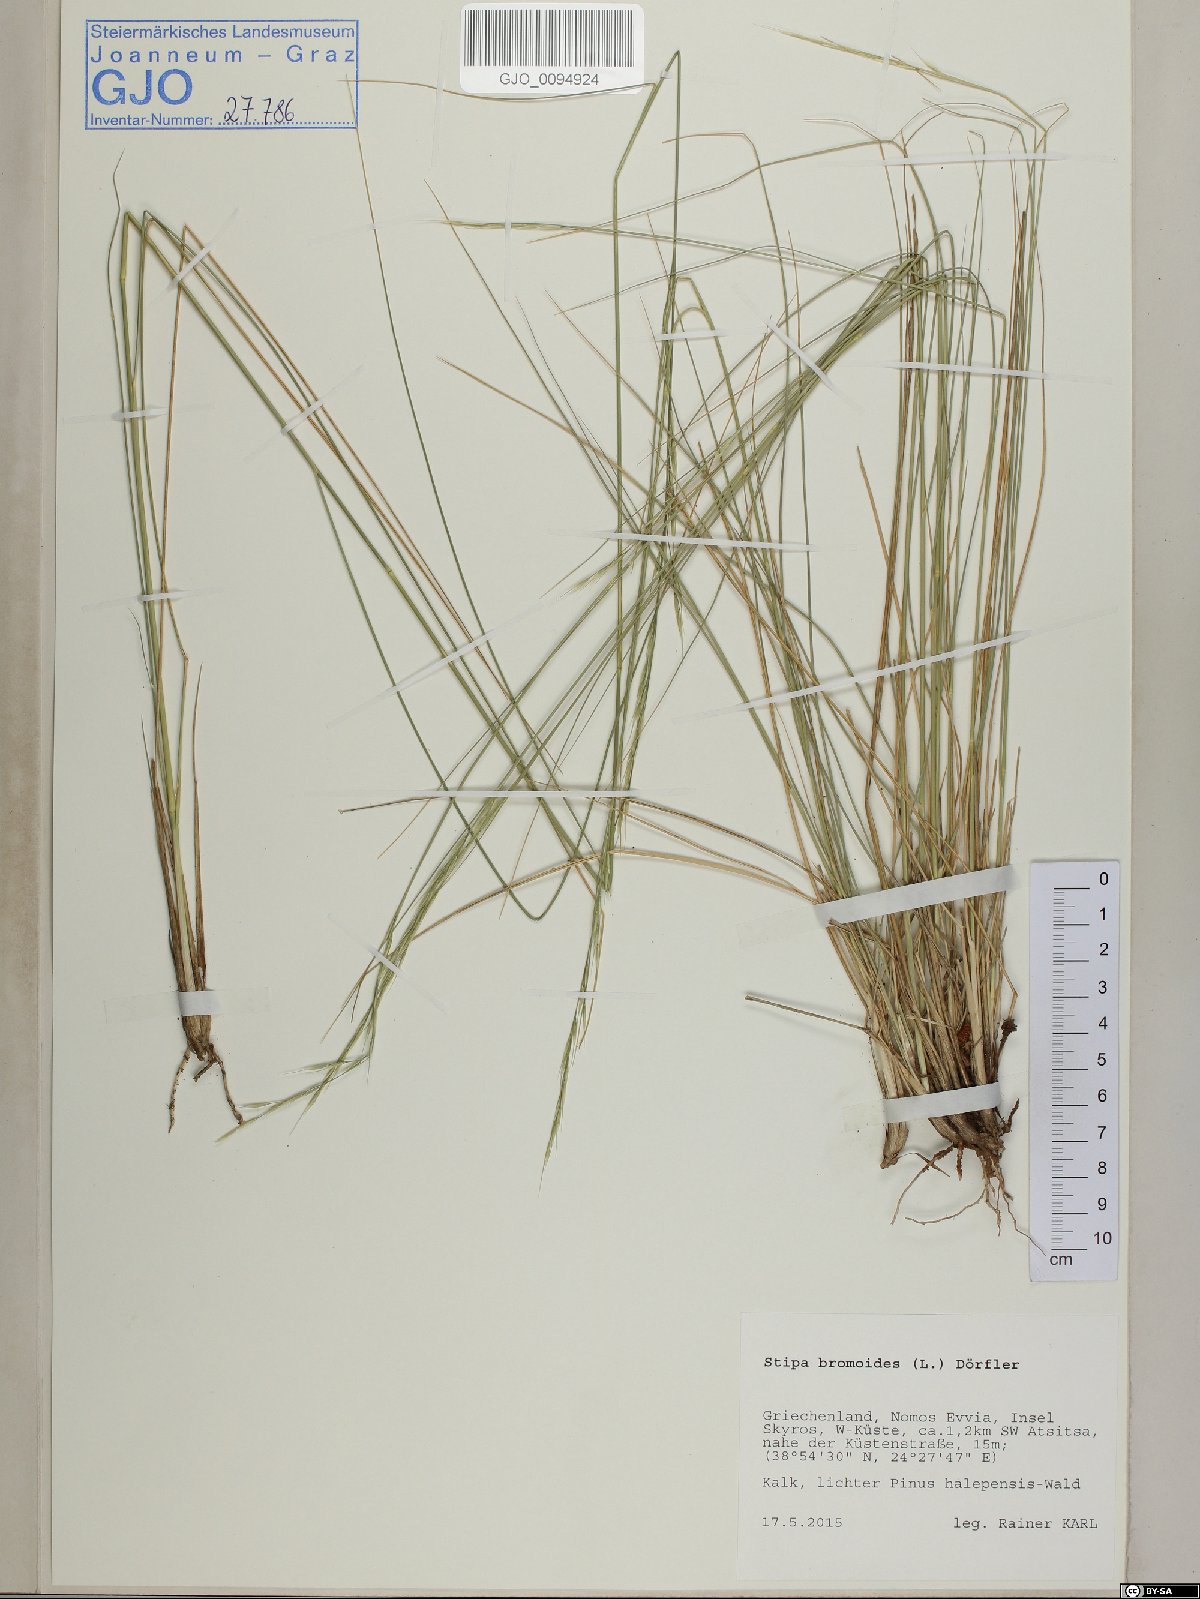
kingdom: Plantae
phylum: Tracheophyta
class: Liliopsida
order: Poales
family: Poaceae
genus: Achnatherum
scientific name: Achnatherum bromoides
